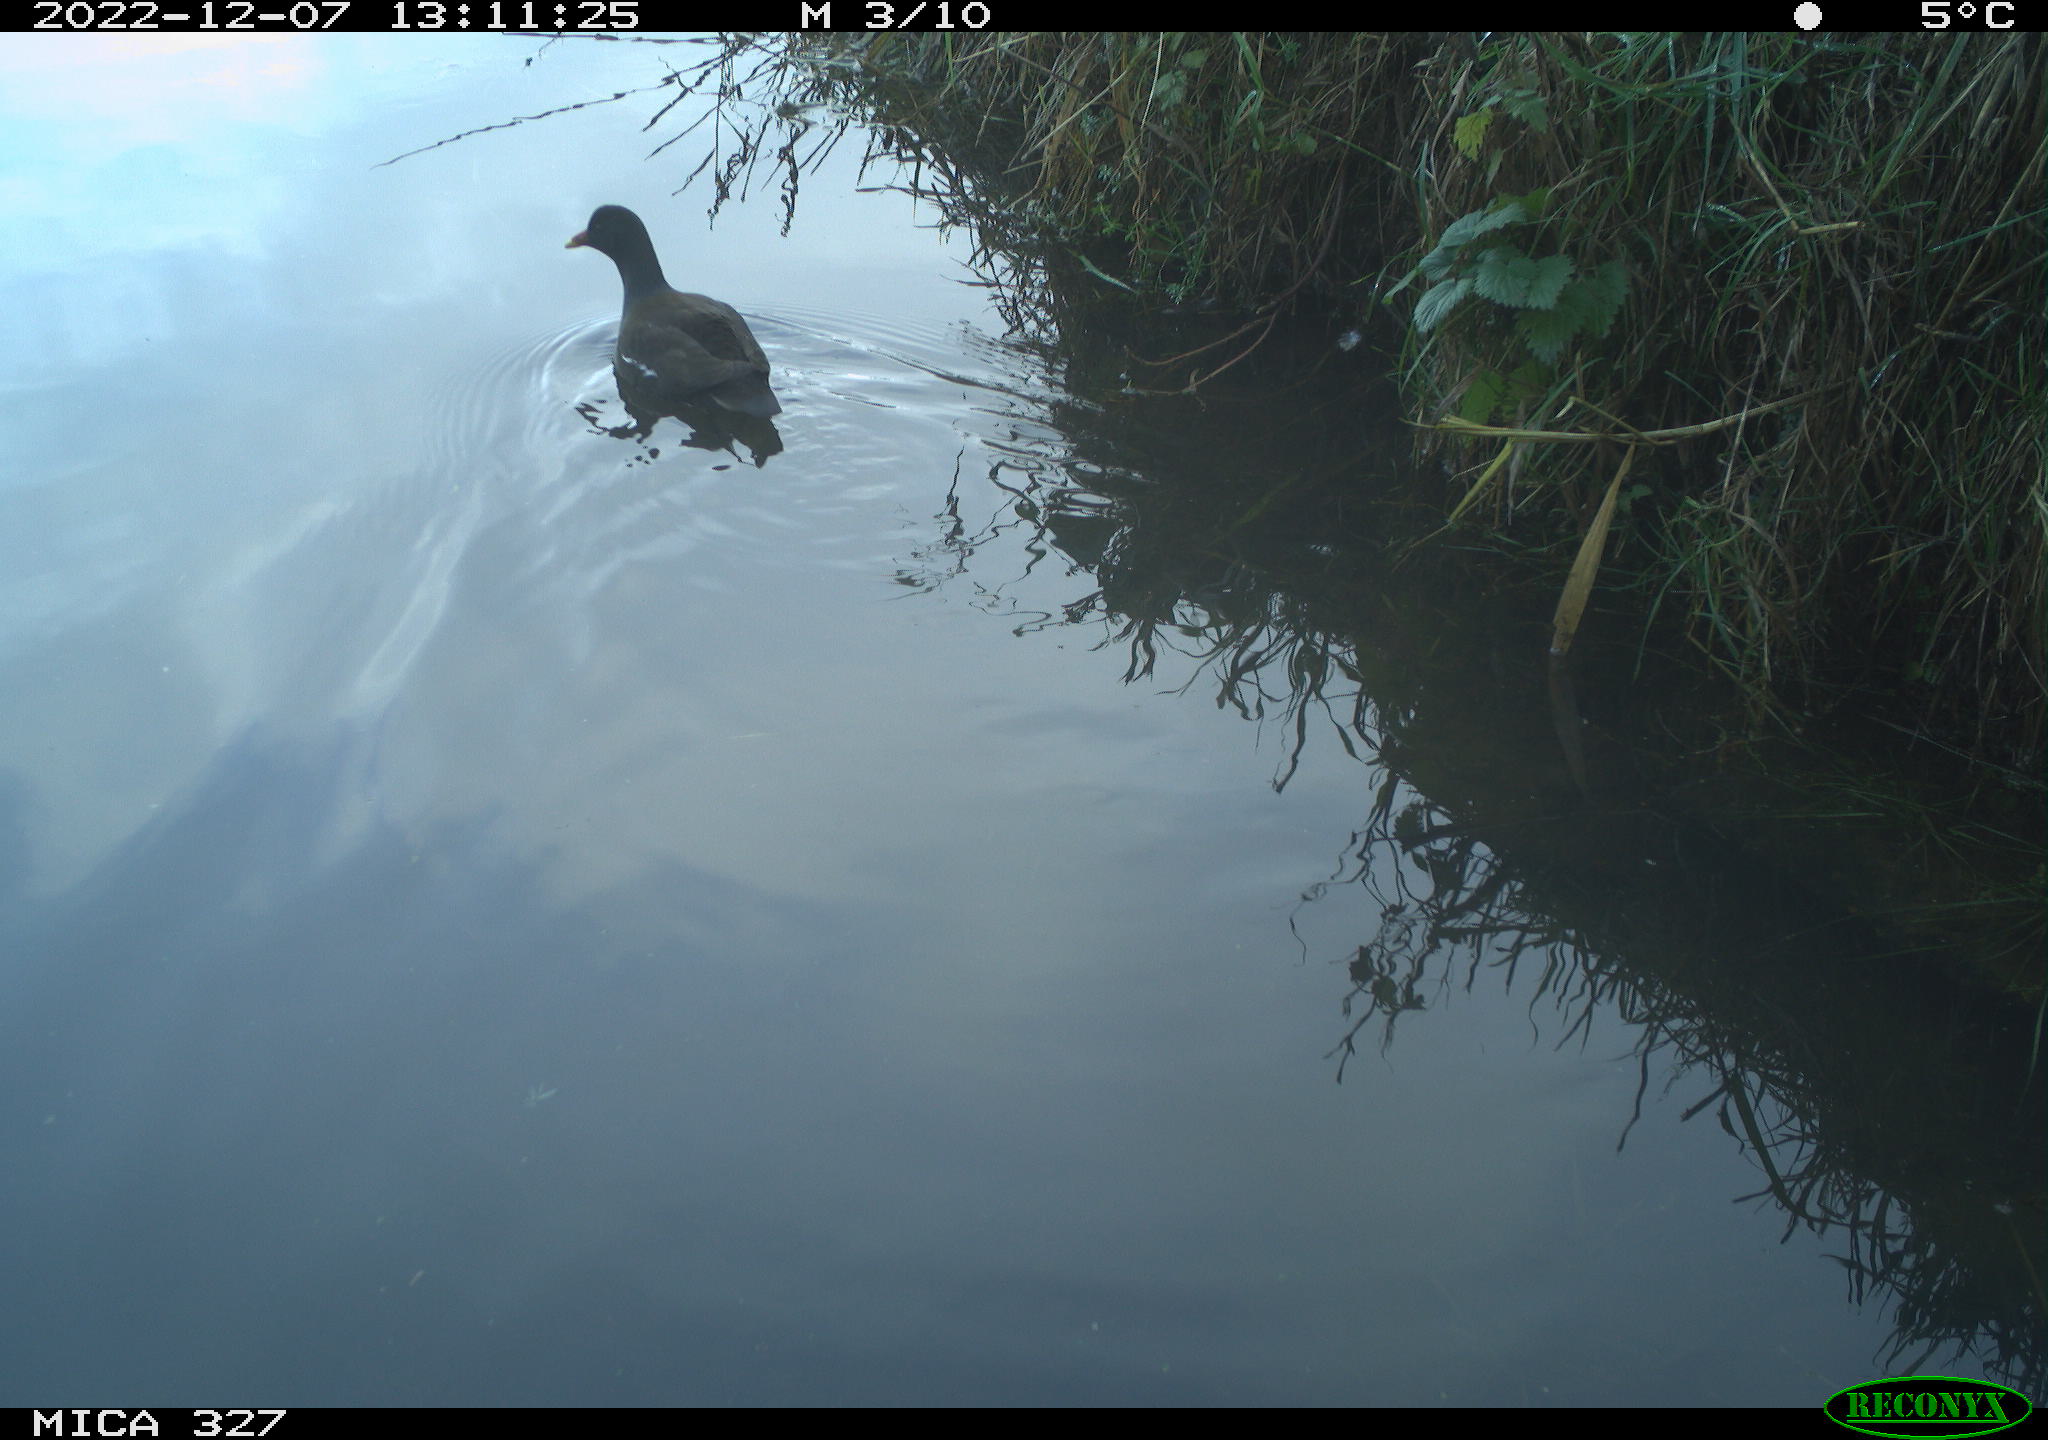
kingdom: Animalia
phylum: Chordata
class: Aves
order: Gruiformes
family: Rallidae
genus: Gallinula
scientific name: Gallinula chloropus
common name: Common moorhen
